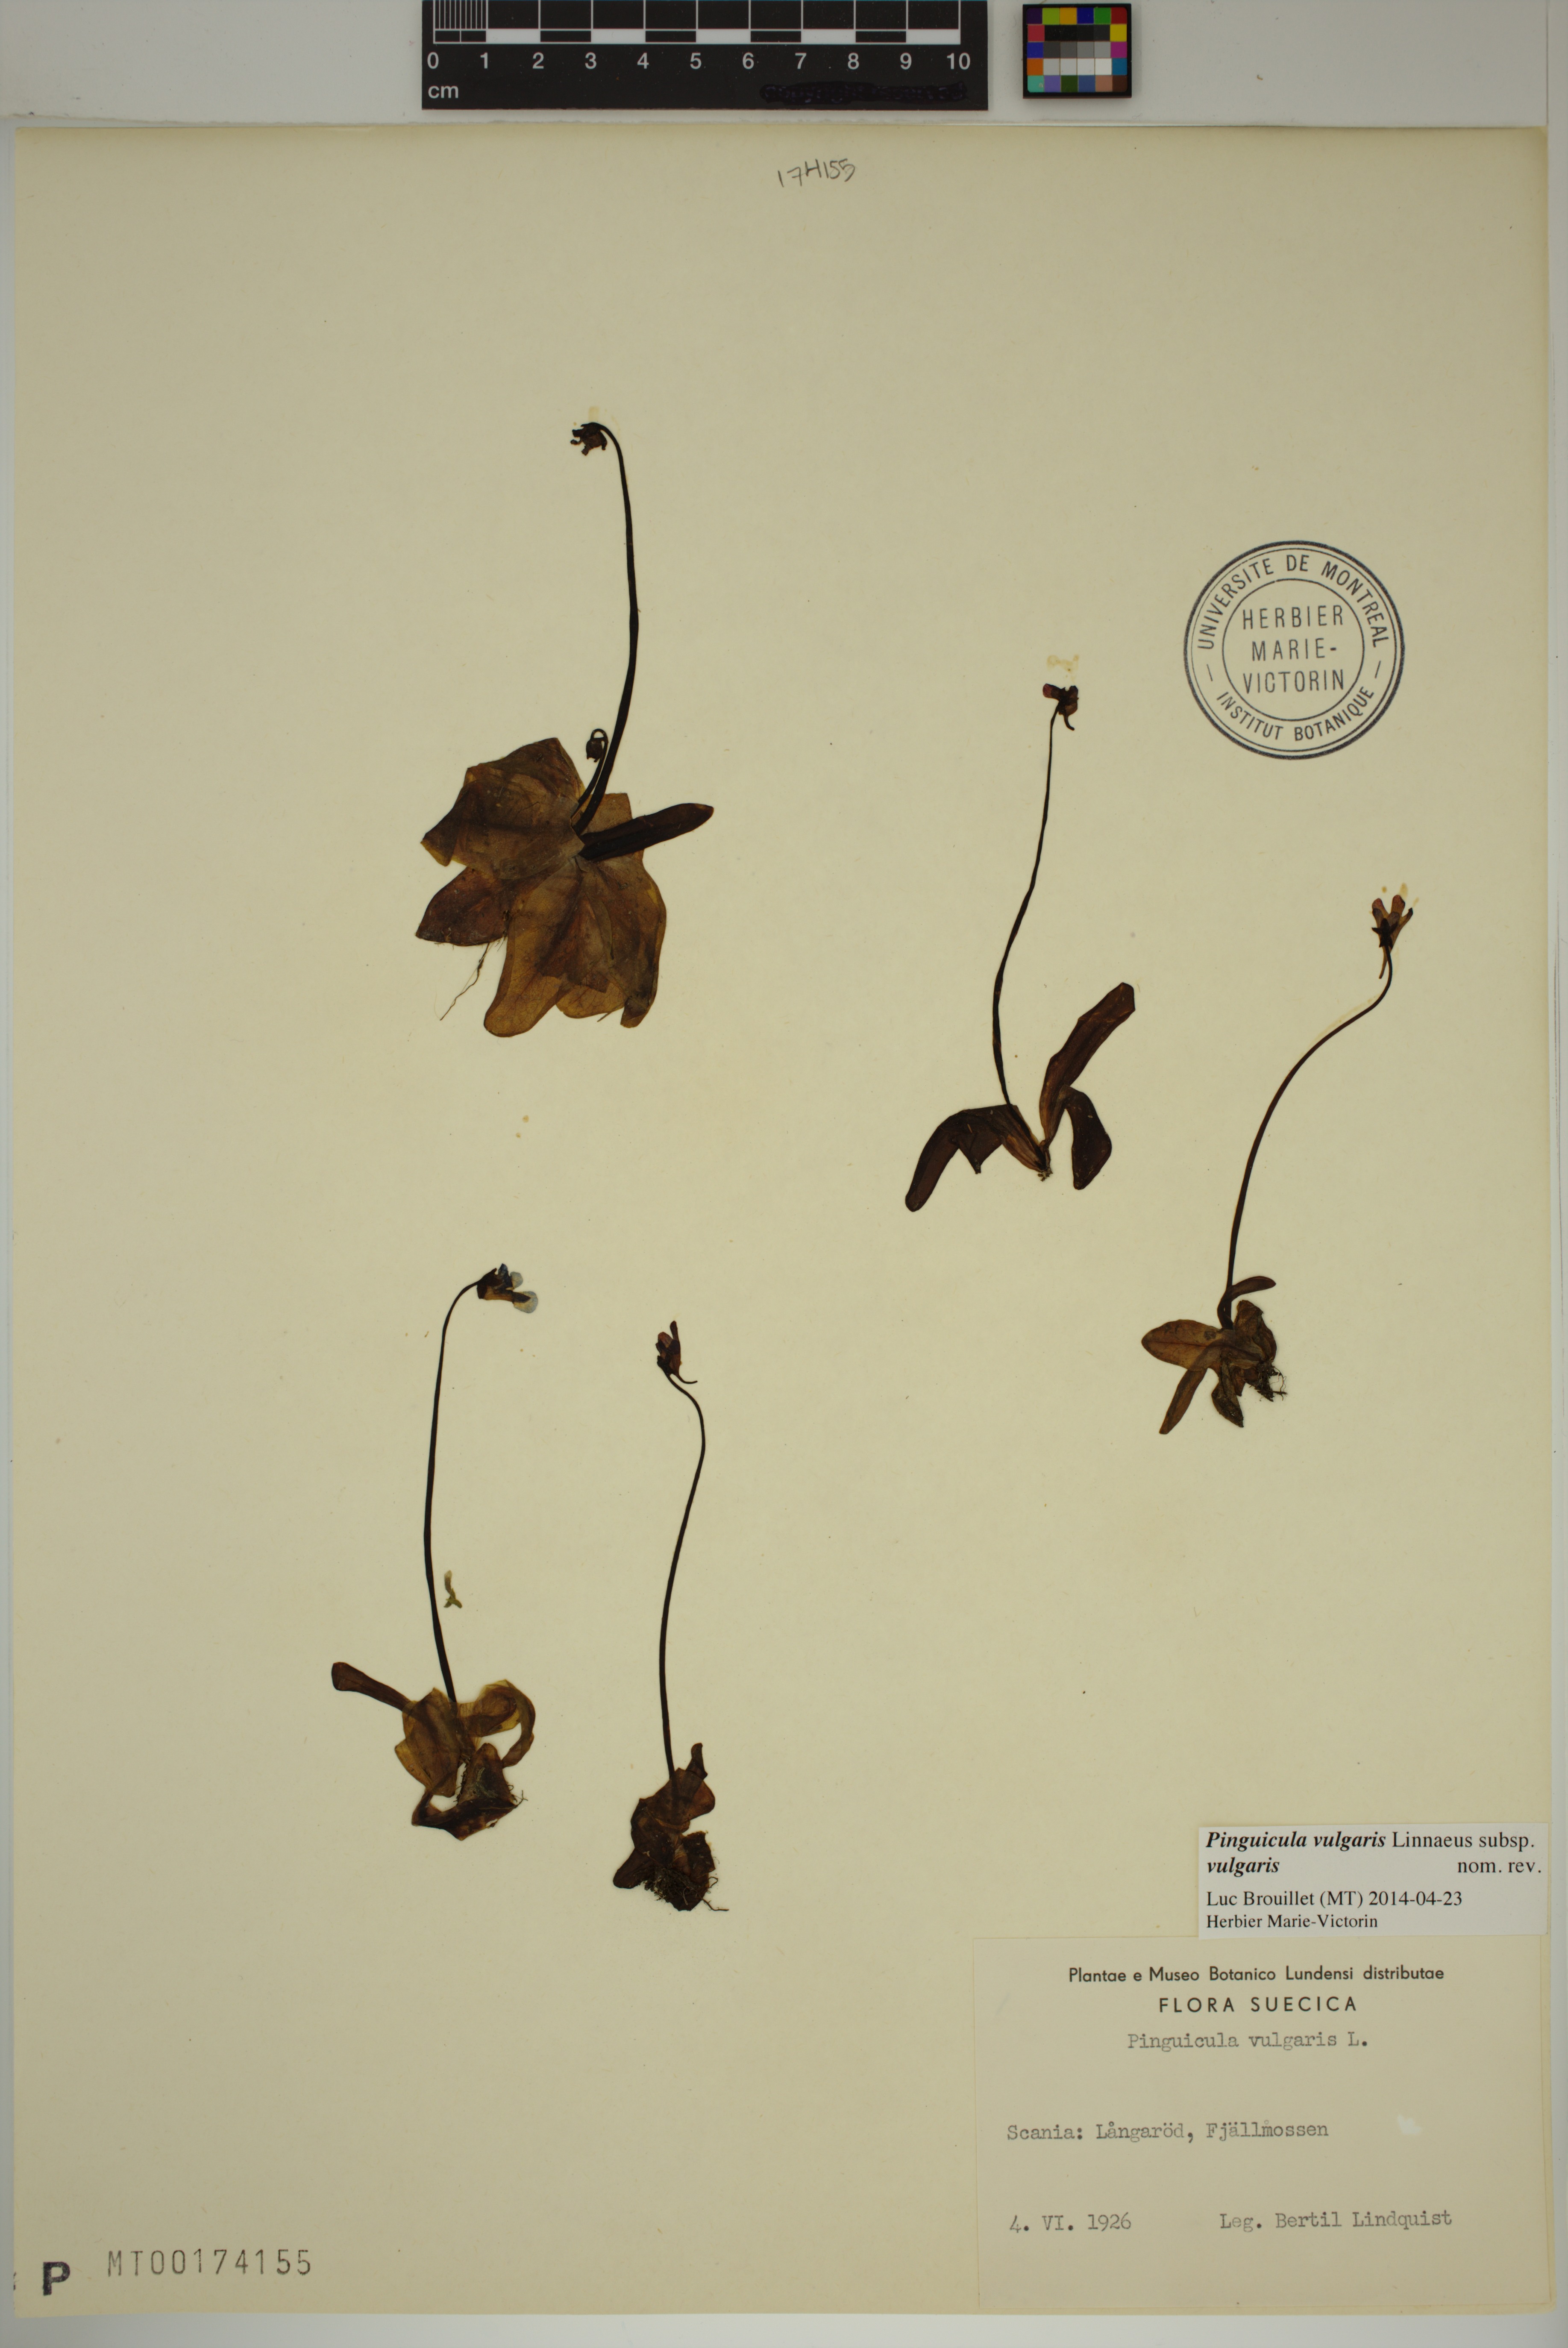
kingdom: Plantae
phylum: Tracheophyta
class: Magnoliopsida
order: Lamiales
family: Lentibulariaceae
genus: Pinguicula
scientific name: Pinguicula vulgaris
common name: Common butterwort
